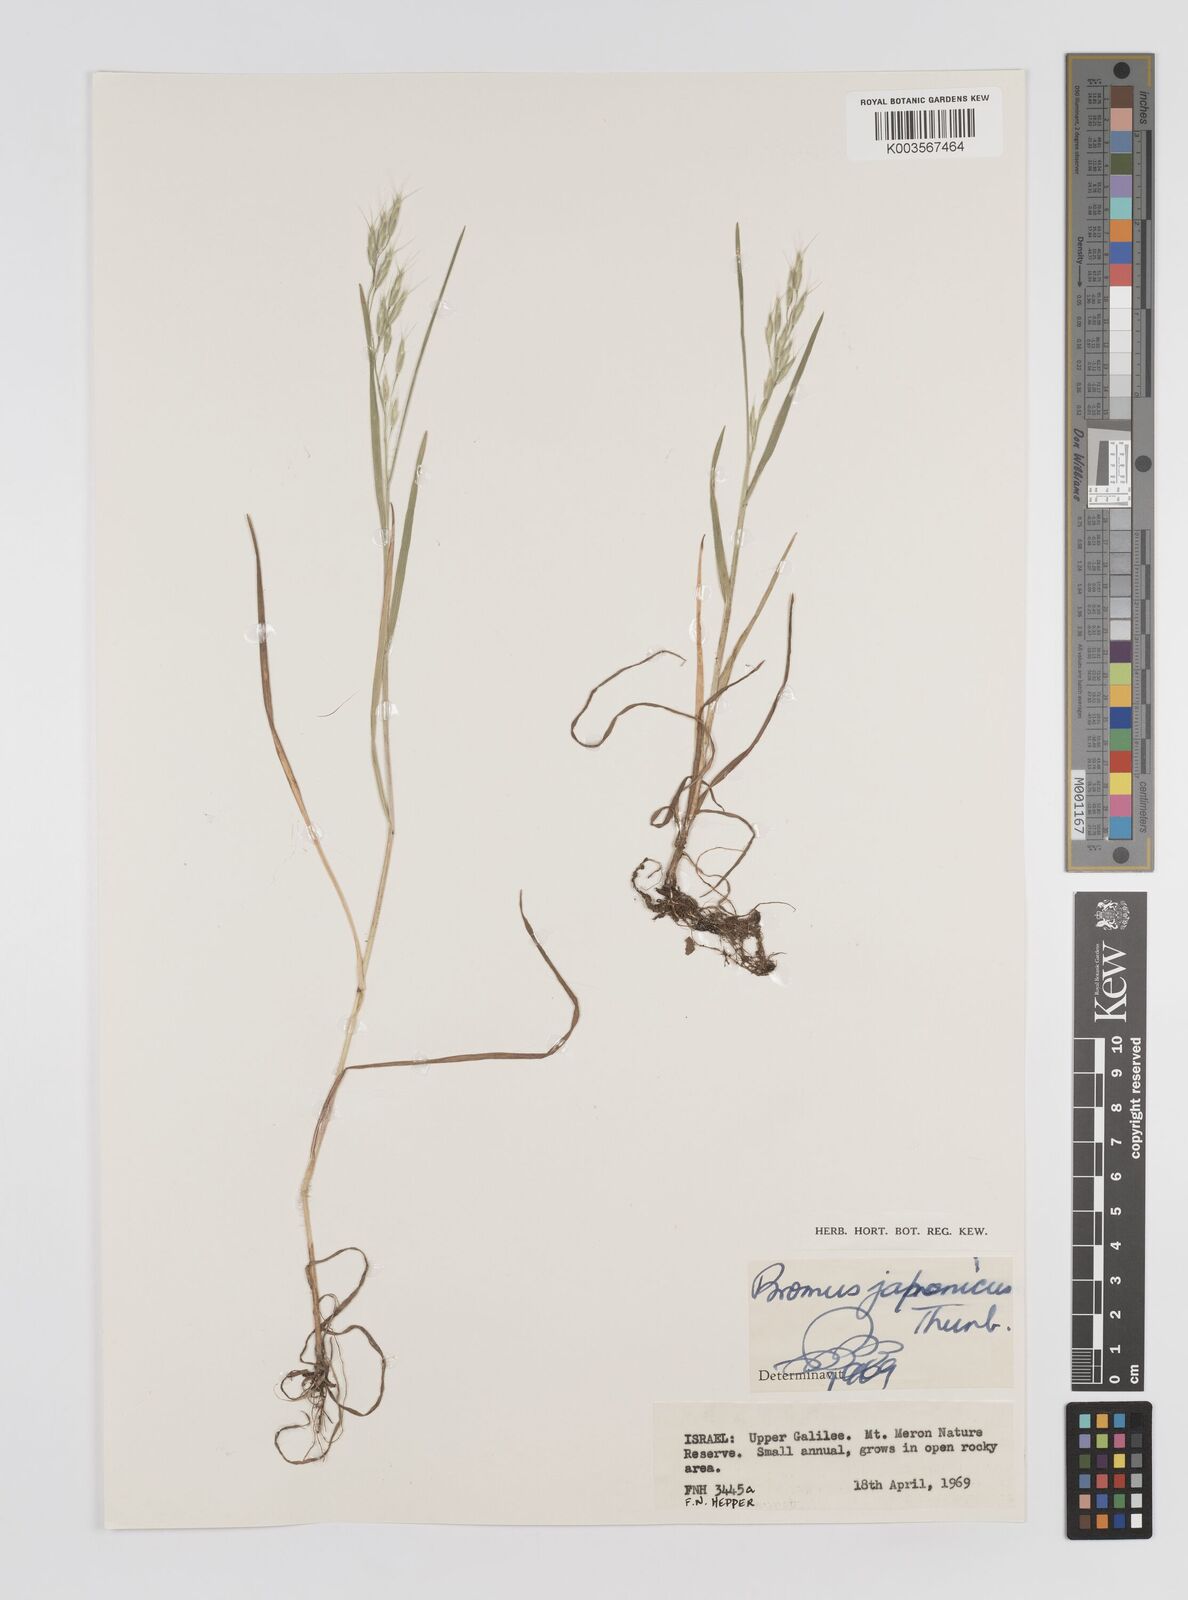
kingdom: Plantae
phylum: Tracheophyta
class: Liliopsida
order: Poales
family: Poaceae
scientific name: Poaceae
